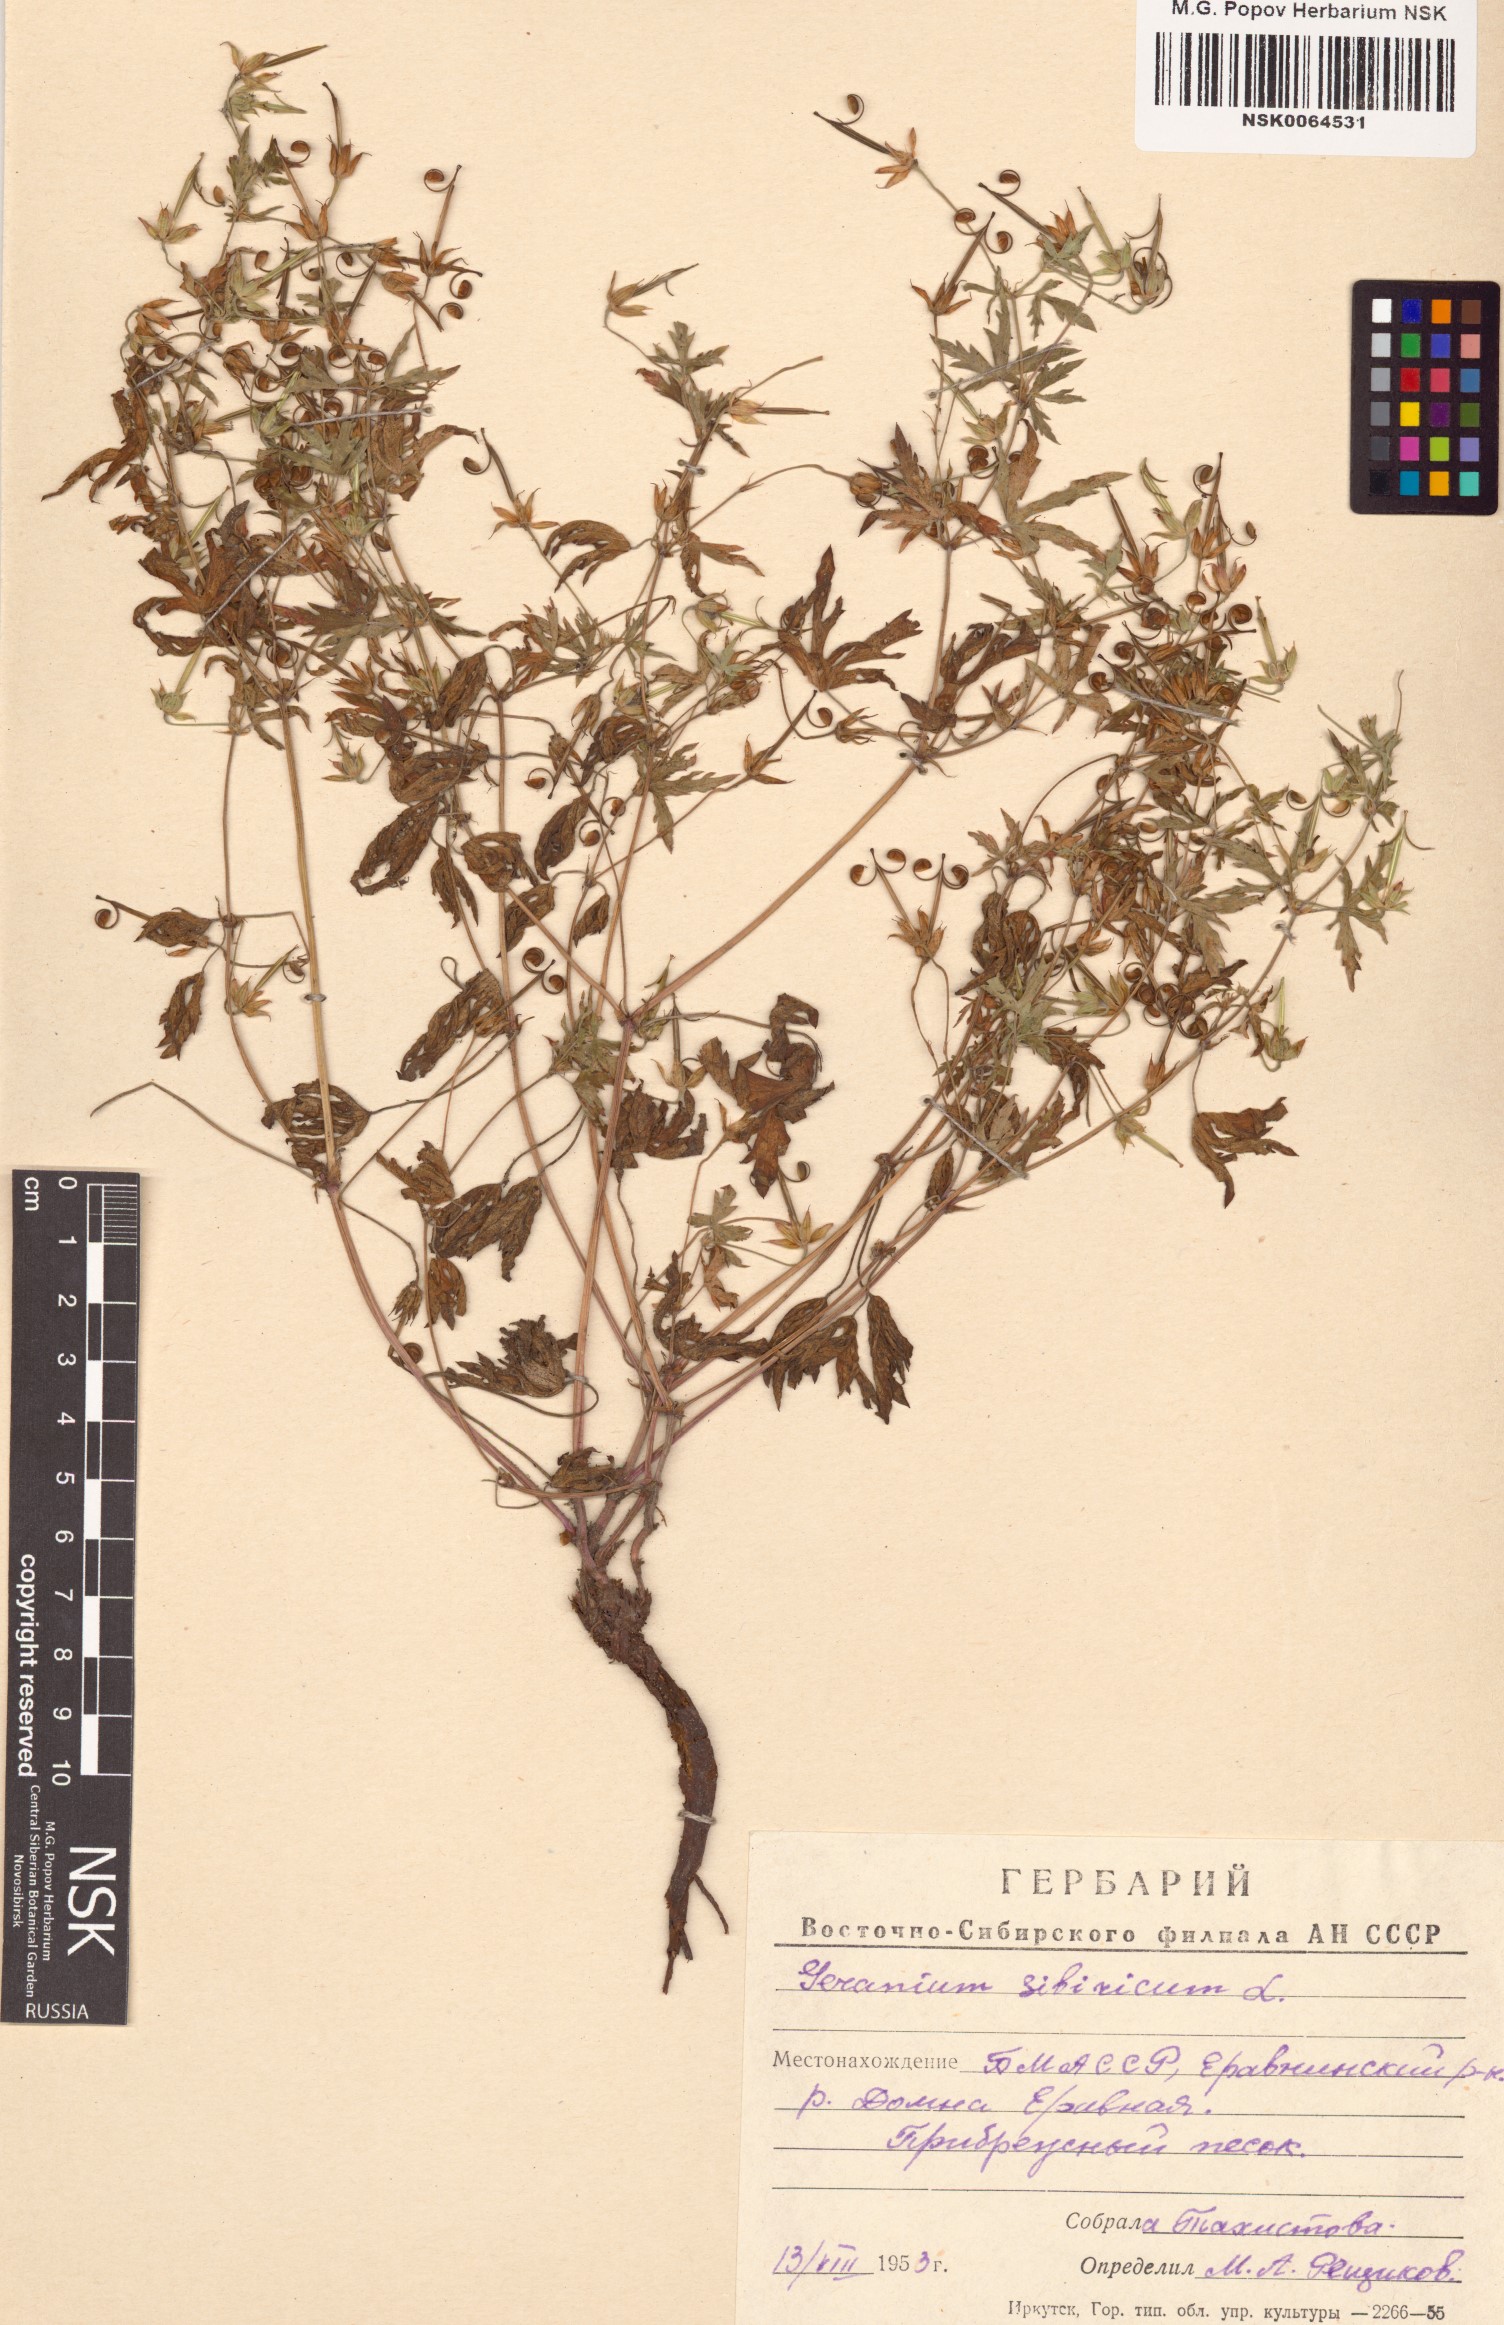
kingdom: Plantae
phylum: Tracheophyta
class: Magnoliopsida
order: Geraniales
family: Geraniaceae
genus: Geranium
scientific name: Geranium sibiricum
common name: Siberian crane's-bill
